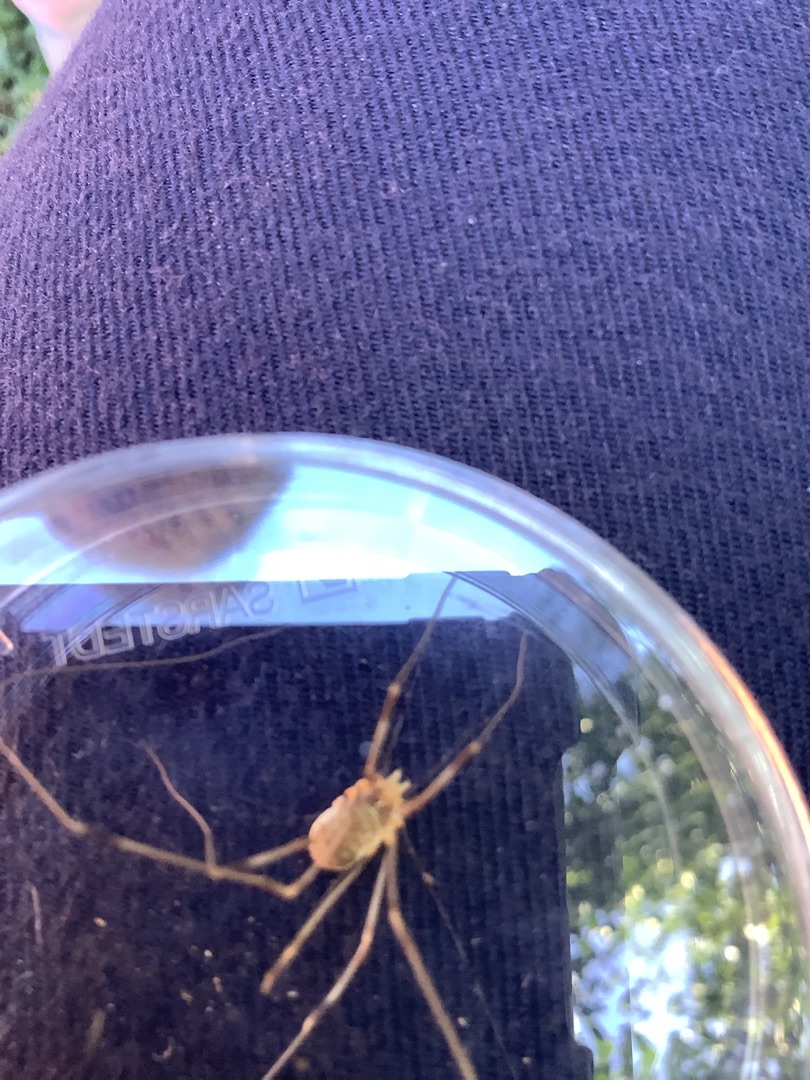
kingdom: Animalia
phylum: Arthropoda
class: Arachnida
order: Opiliones
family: Phalangiidae
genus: Opilio
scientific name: Opilio canestrinii
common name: Orange vægmejer
